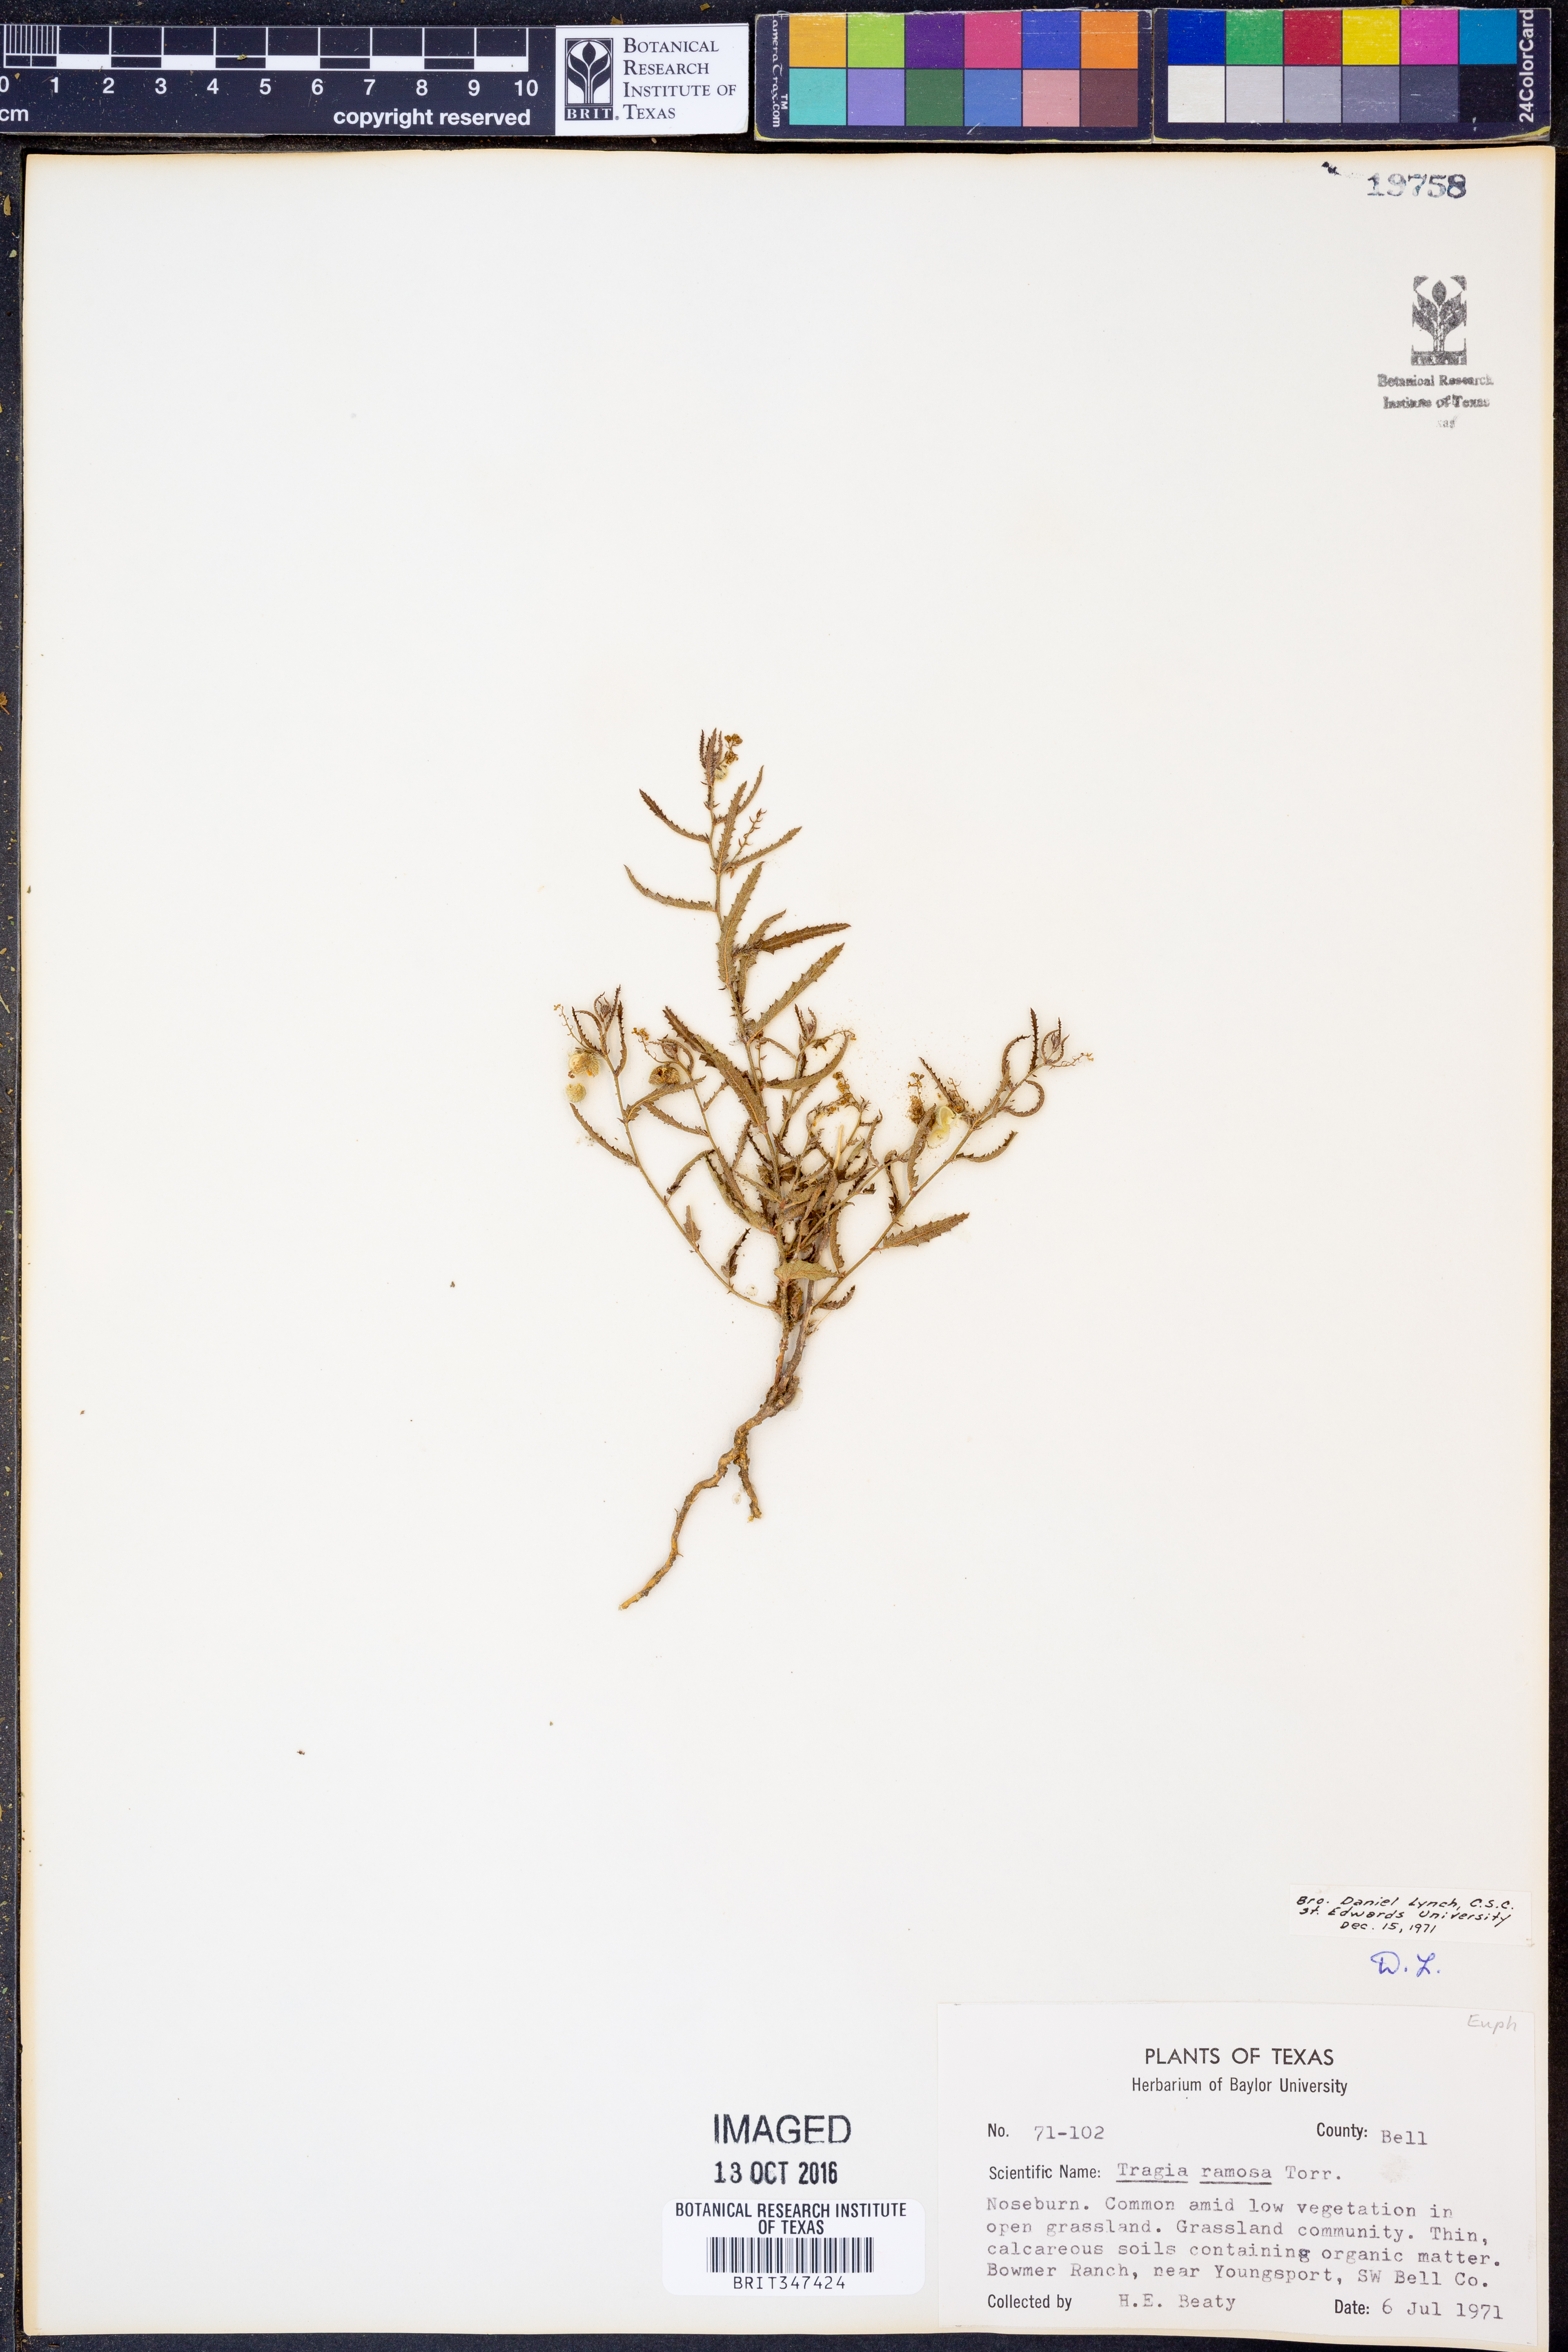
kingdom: Plantae
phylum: Tracheophyta
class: Magnoliopsida
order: Malpighiales
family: Euphorbiaceae
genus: Tragia
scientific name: Tragia ramosa
